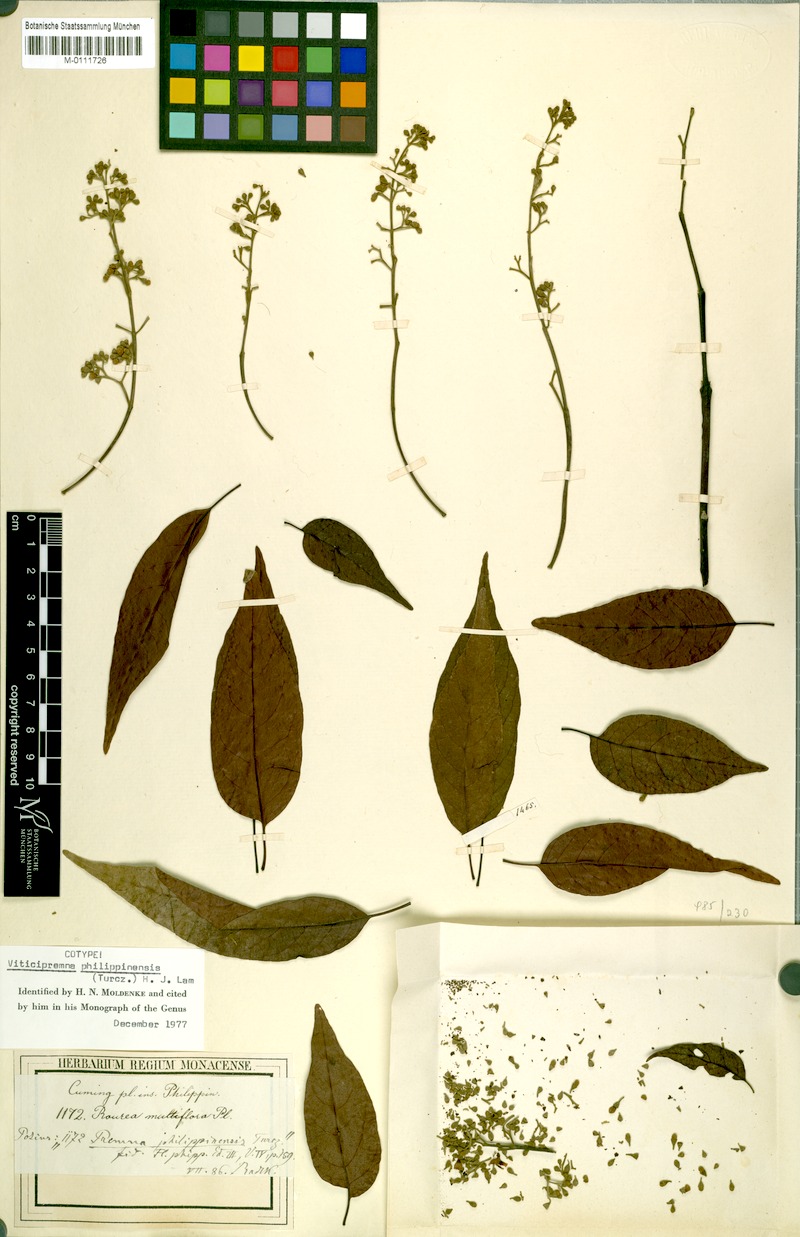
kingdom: Plantae
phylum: Tracheophyta
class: Magnoliopsida
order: Lamiales
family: Lamiaceae
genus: Vitex
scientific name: Vitex turczaninowii
